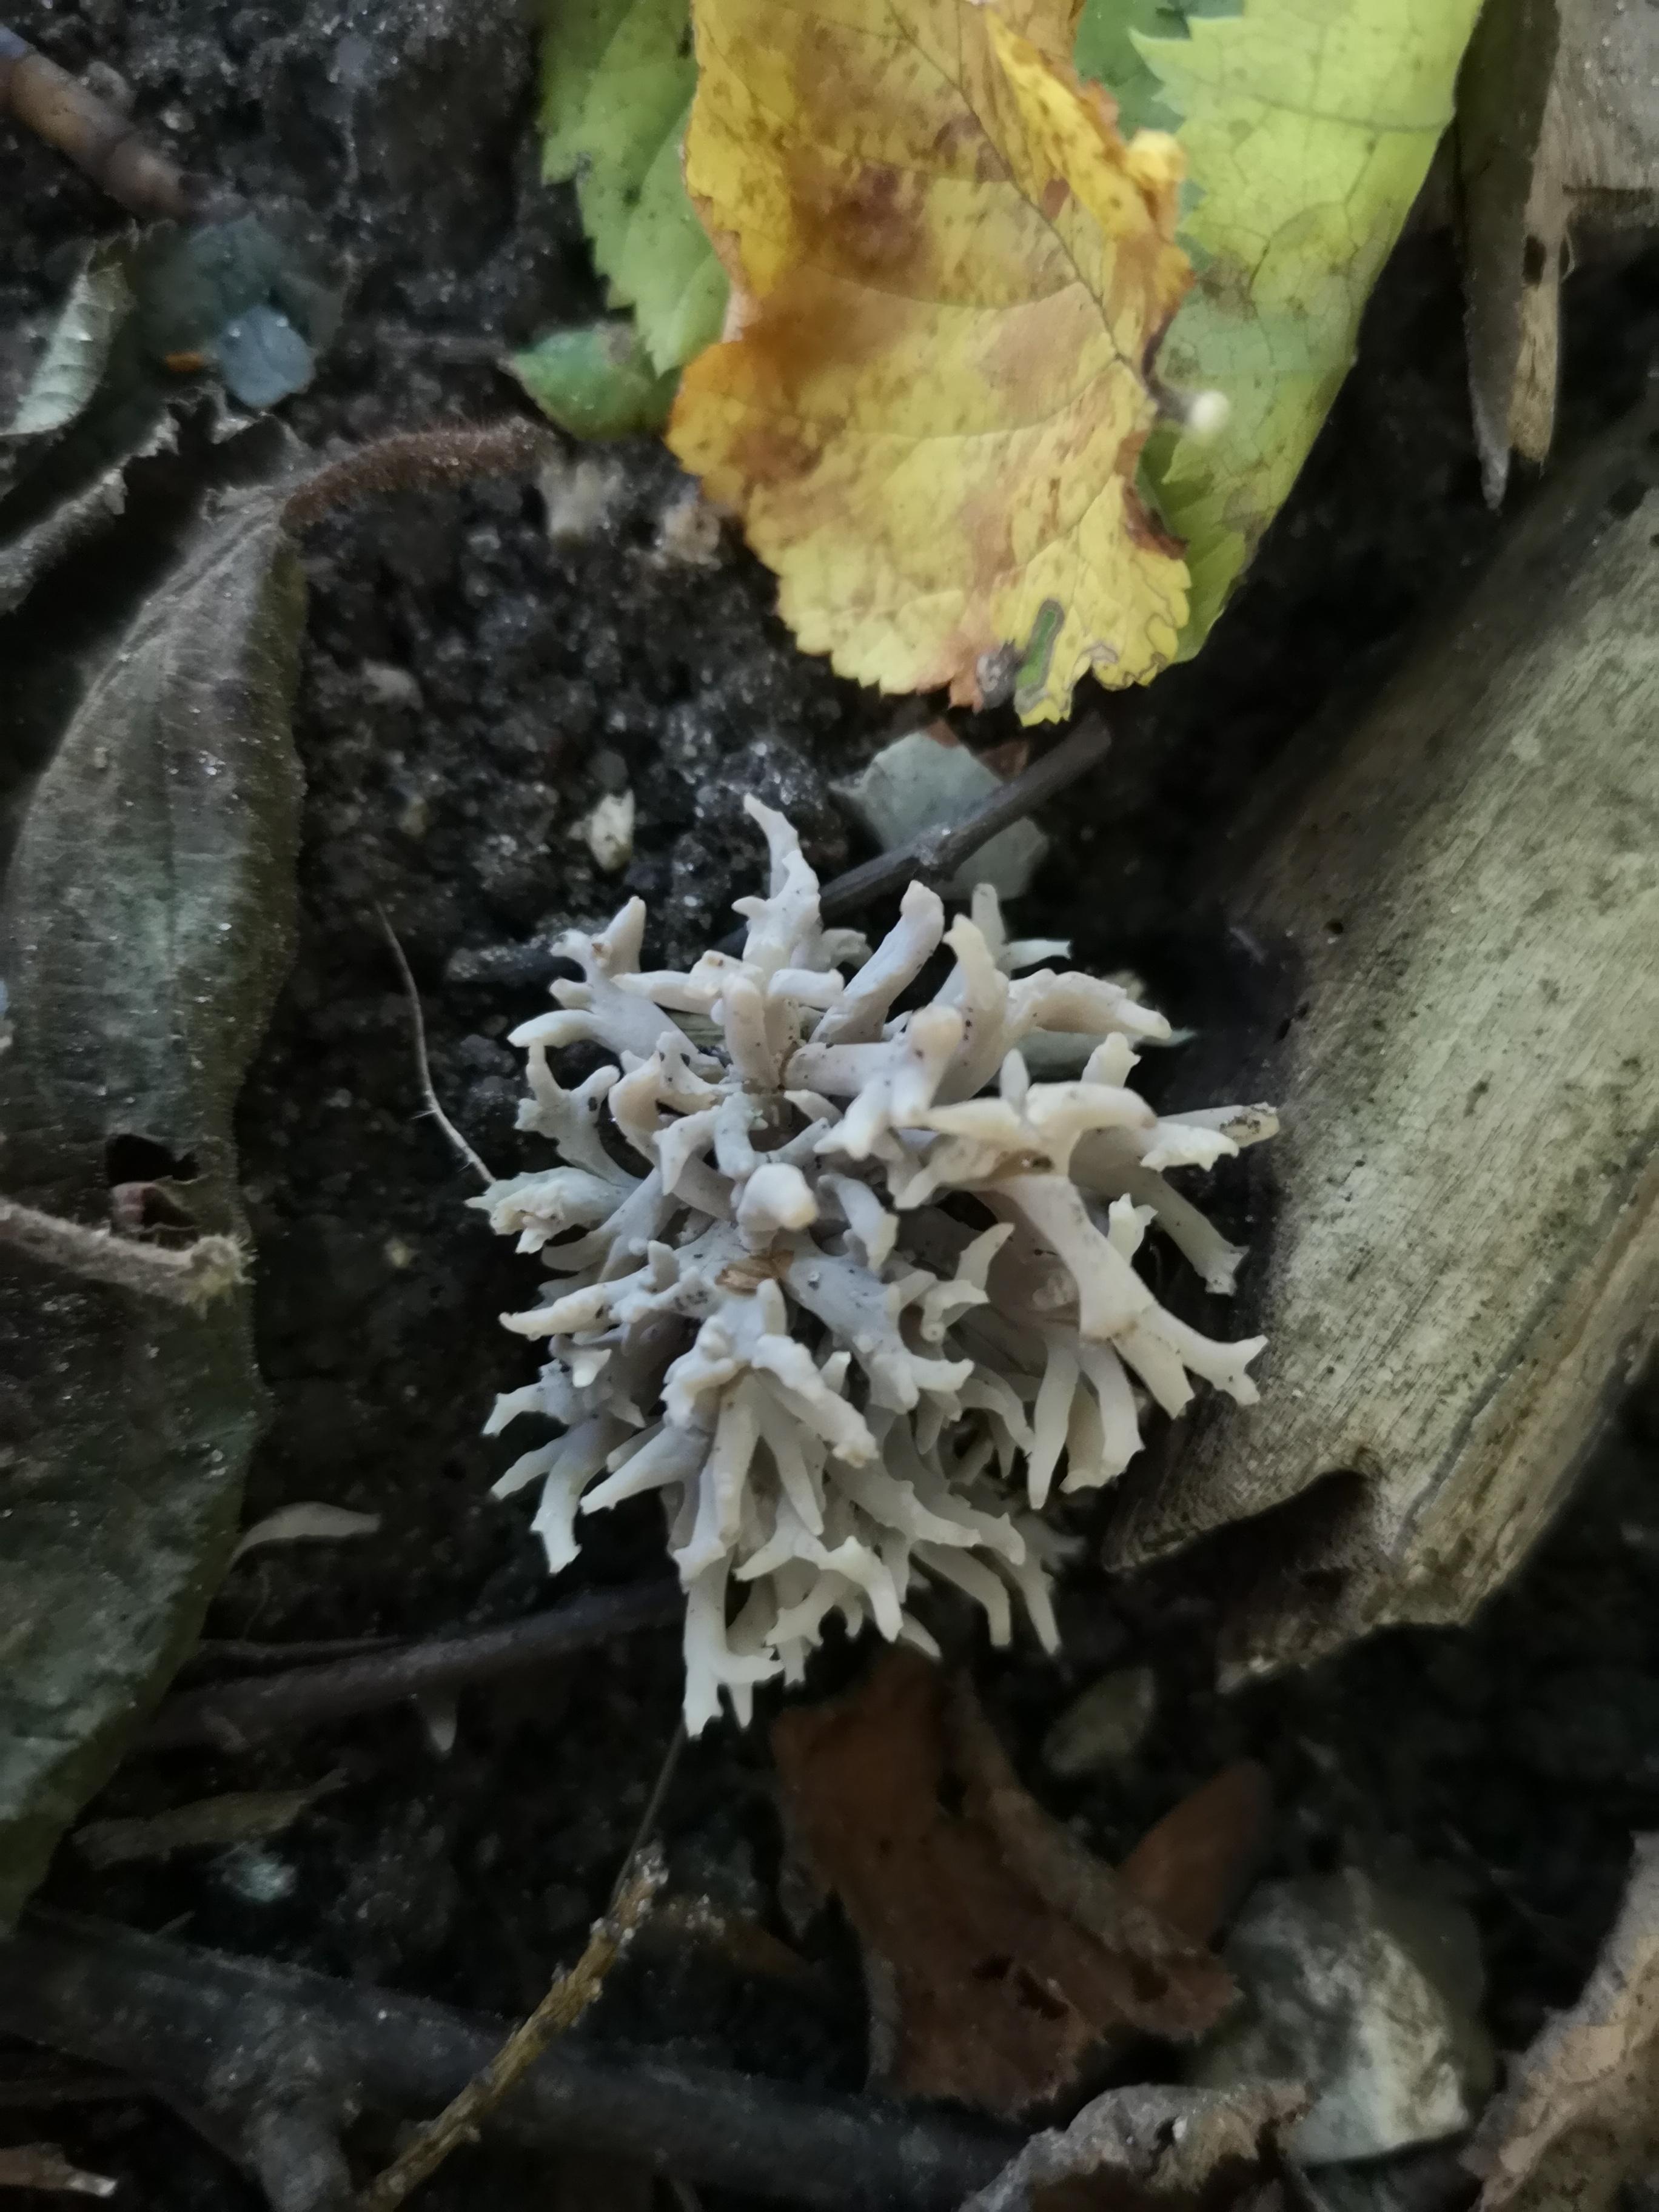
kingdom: Fungi
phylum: Basidiomycota
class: Agaricomycetes
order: Cantharellales
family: Hydnaceae
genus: Clavulina
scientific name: Clavulina
